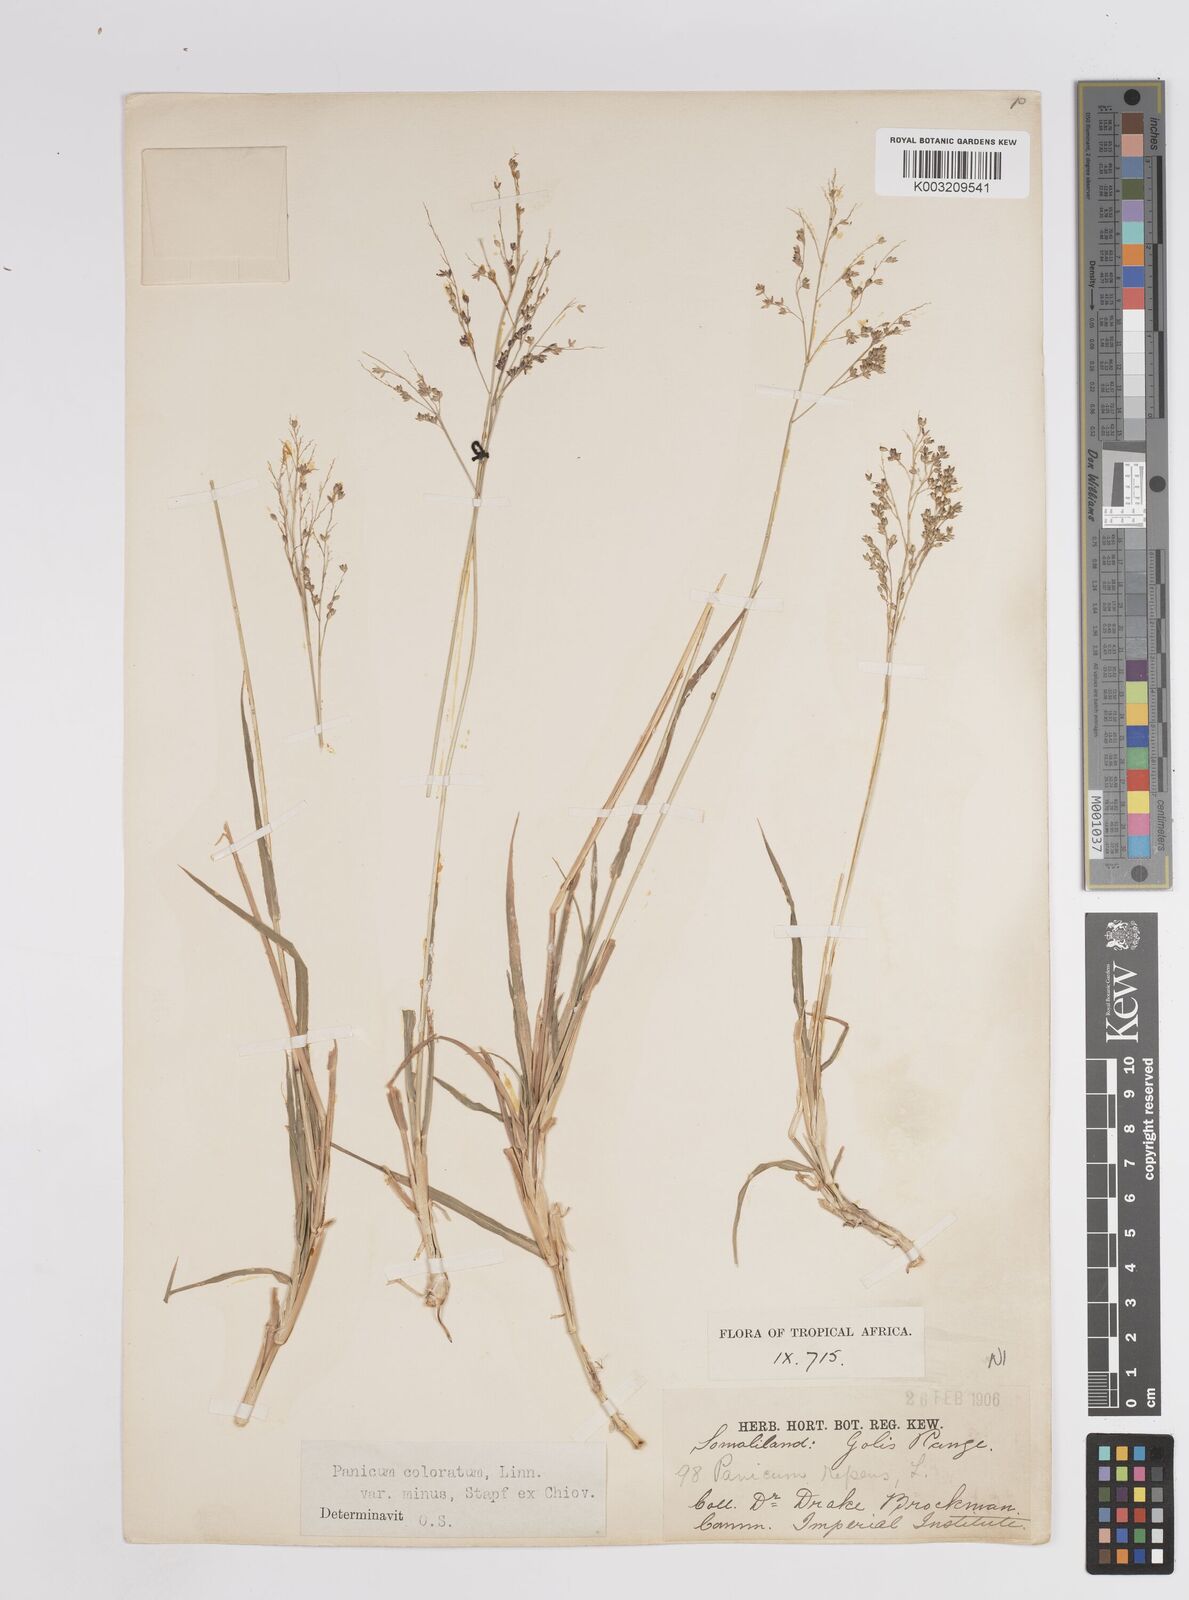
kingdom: Plantae
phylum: Tracheophyta
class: Liliopsida
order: Poales
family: Poaceae
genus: Panicum
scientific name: Panicum coloratum
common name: Kleingrass
